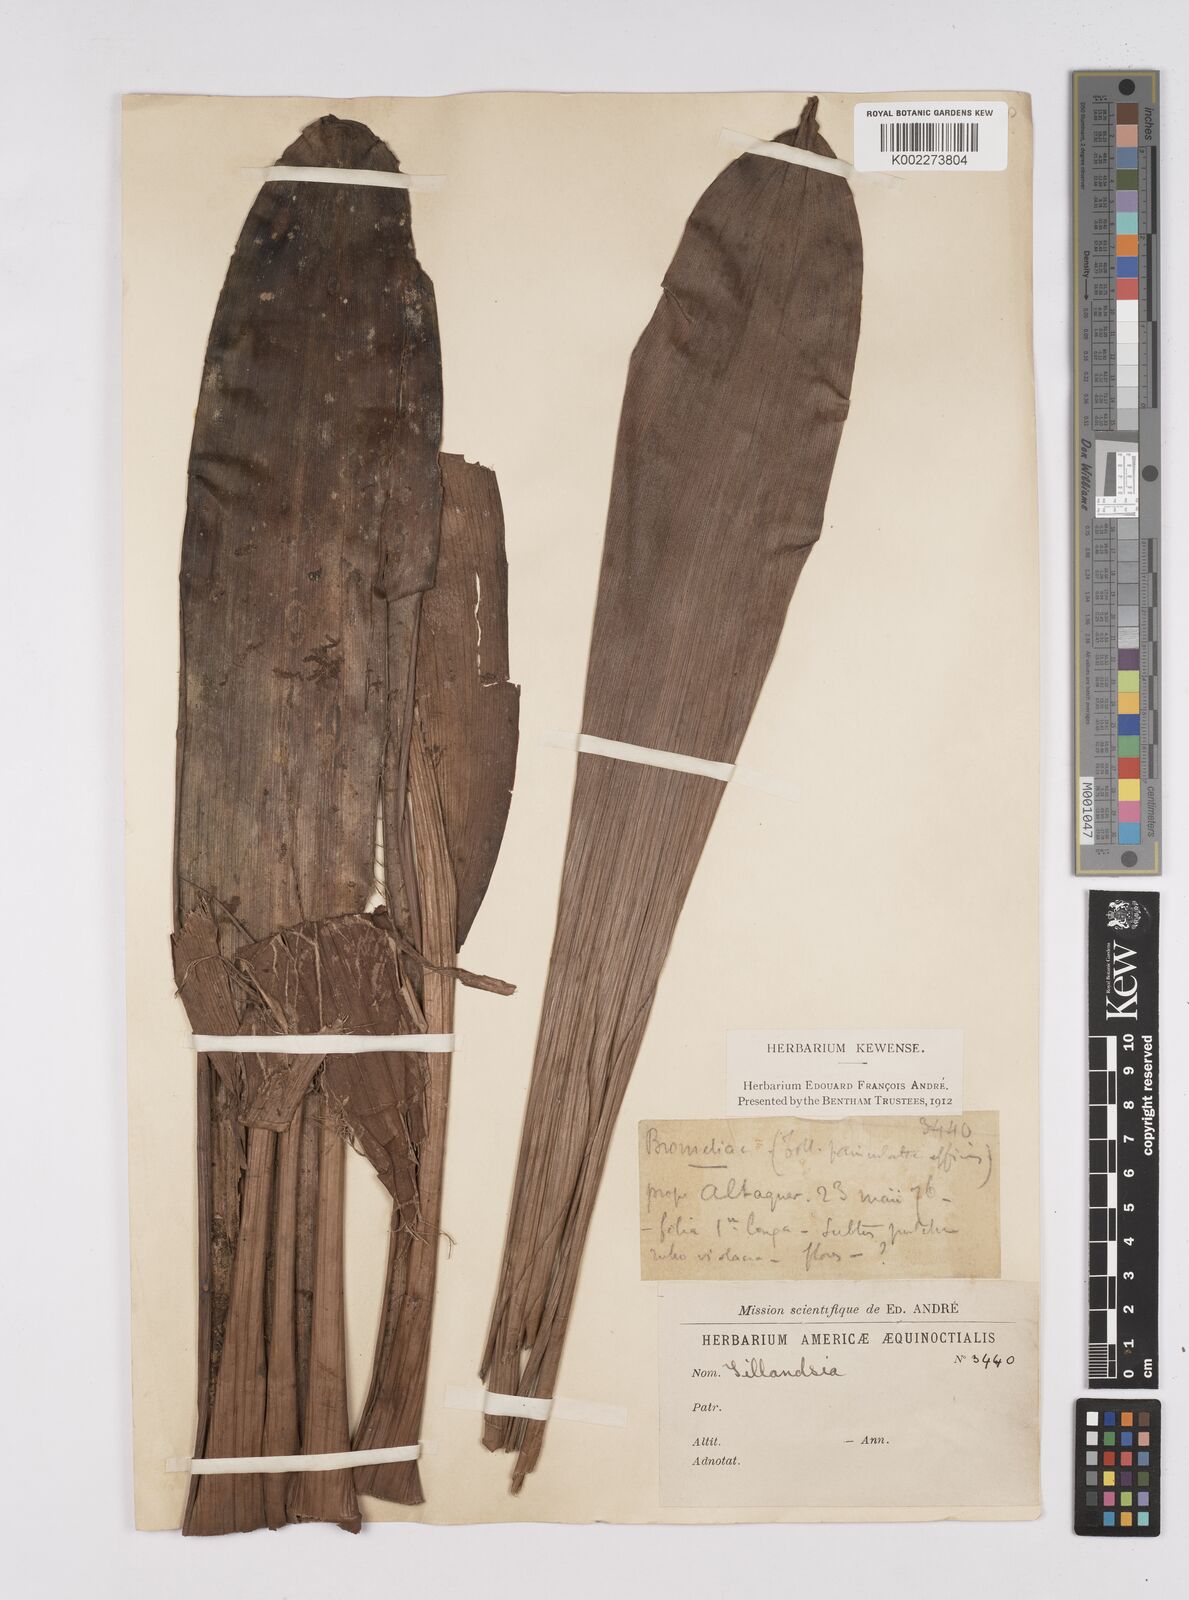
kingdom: Plantae
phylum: Tracheophyta
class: Liliopsida
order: Poales
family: Bromeliaceae
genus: Tillandsia
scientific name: Tillandsia
